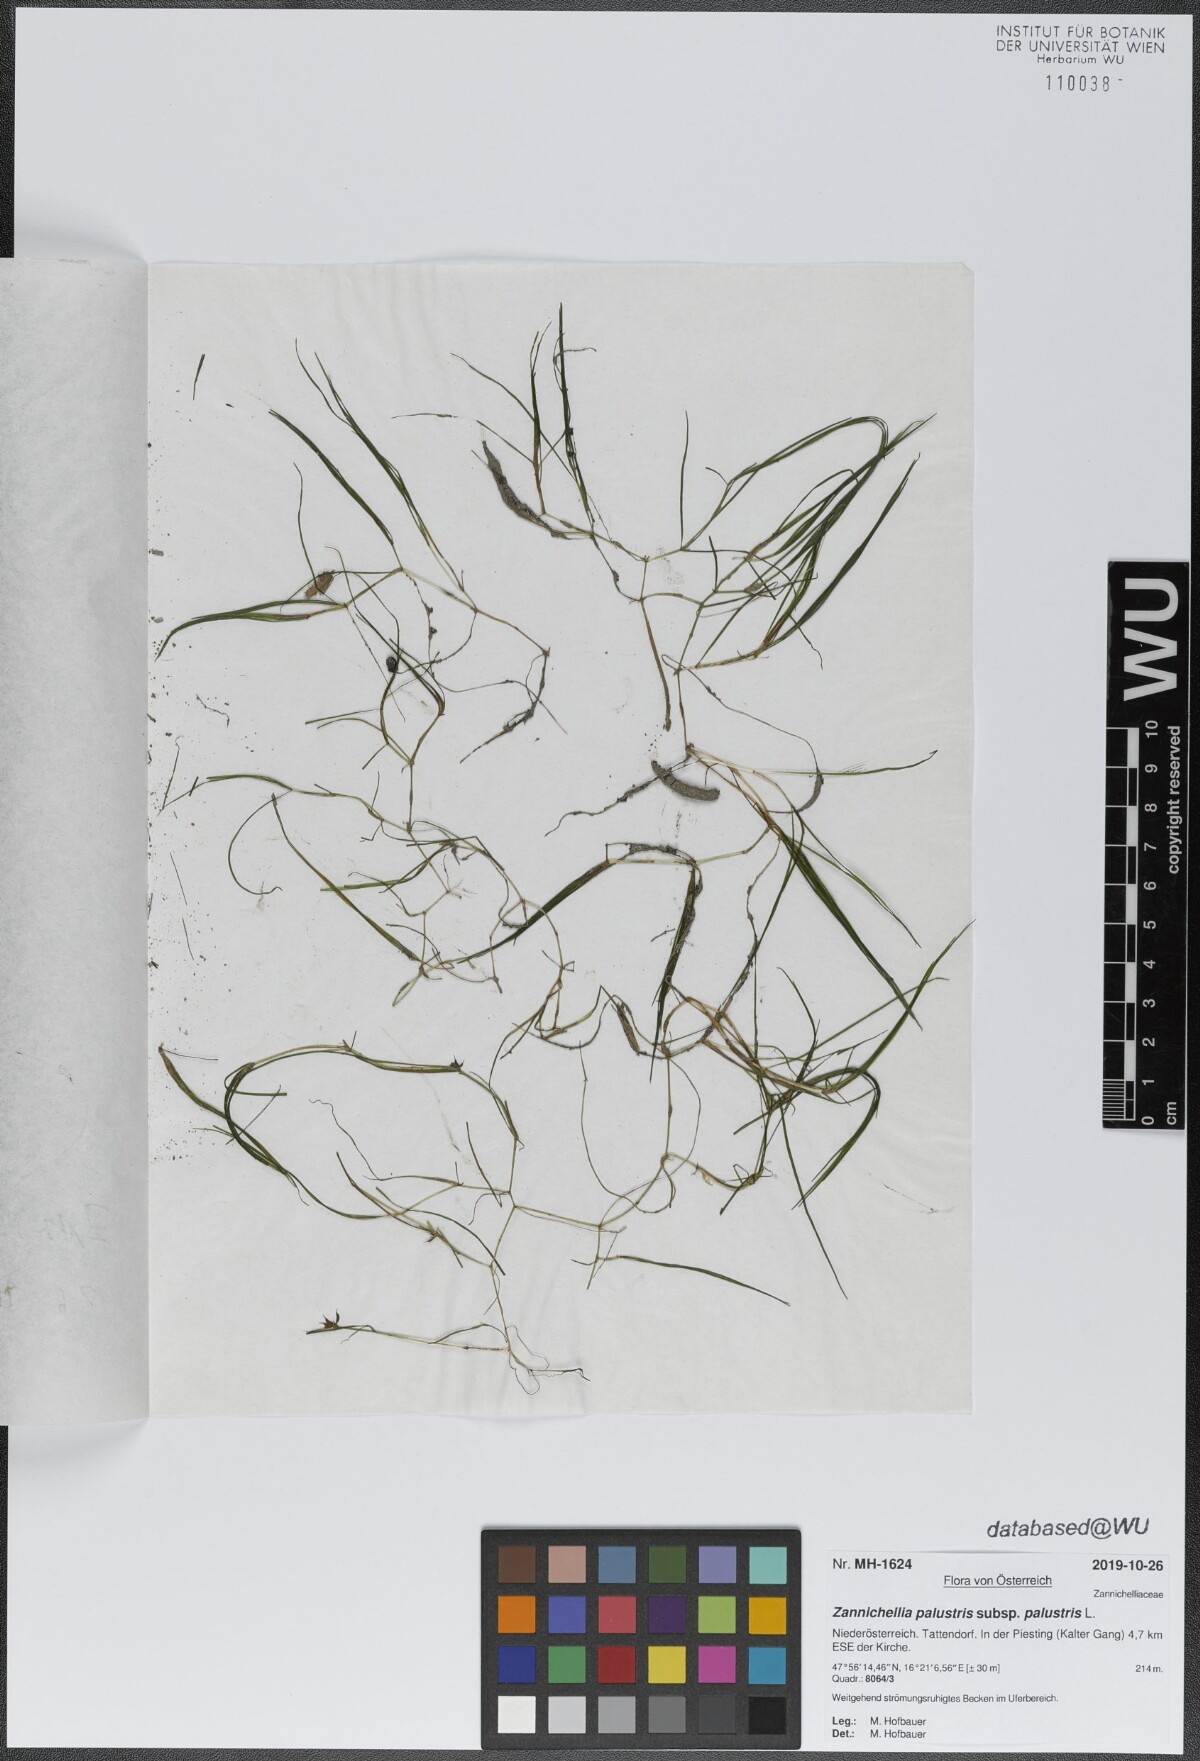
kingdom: Plantae
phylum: Tracheophyta
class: Liliopsida
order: Alismatales
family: Potamogetonaceae
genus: Zannichellia
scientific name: Zannichellia palustris
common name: Horned pondweed
